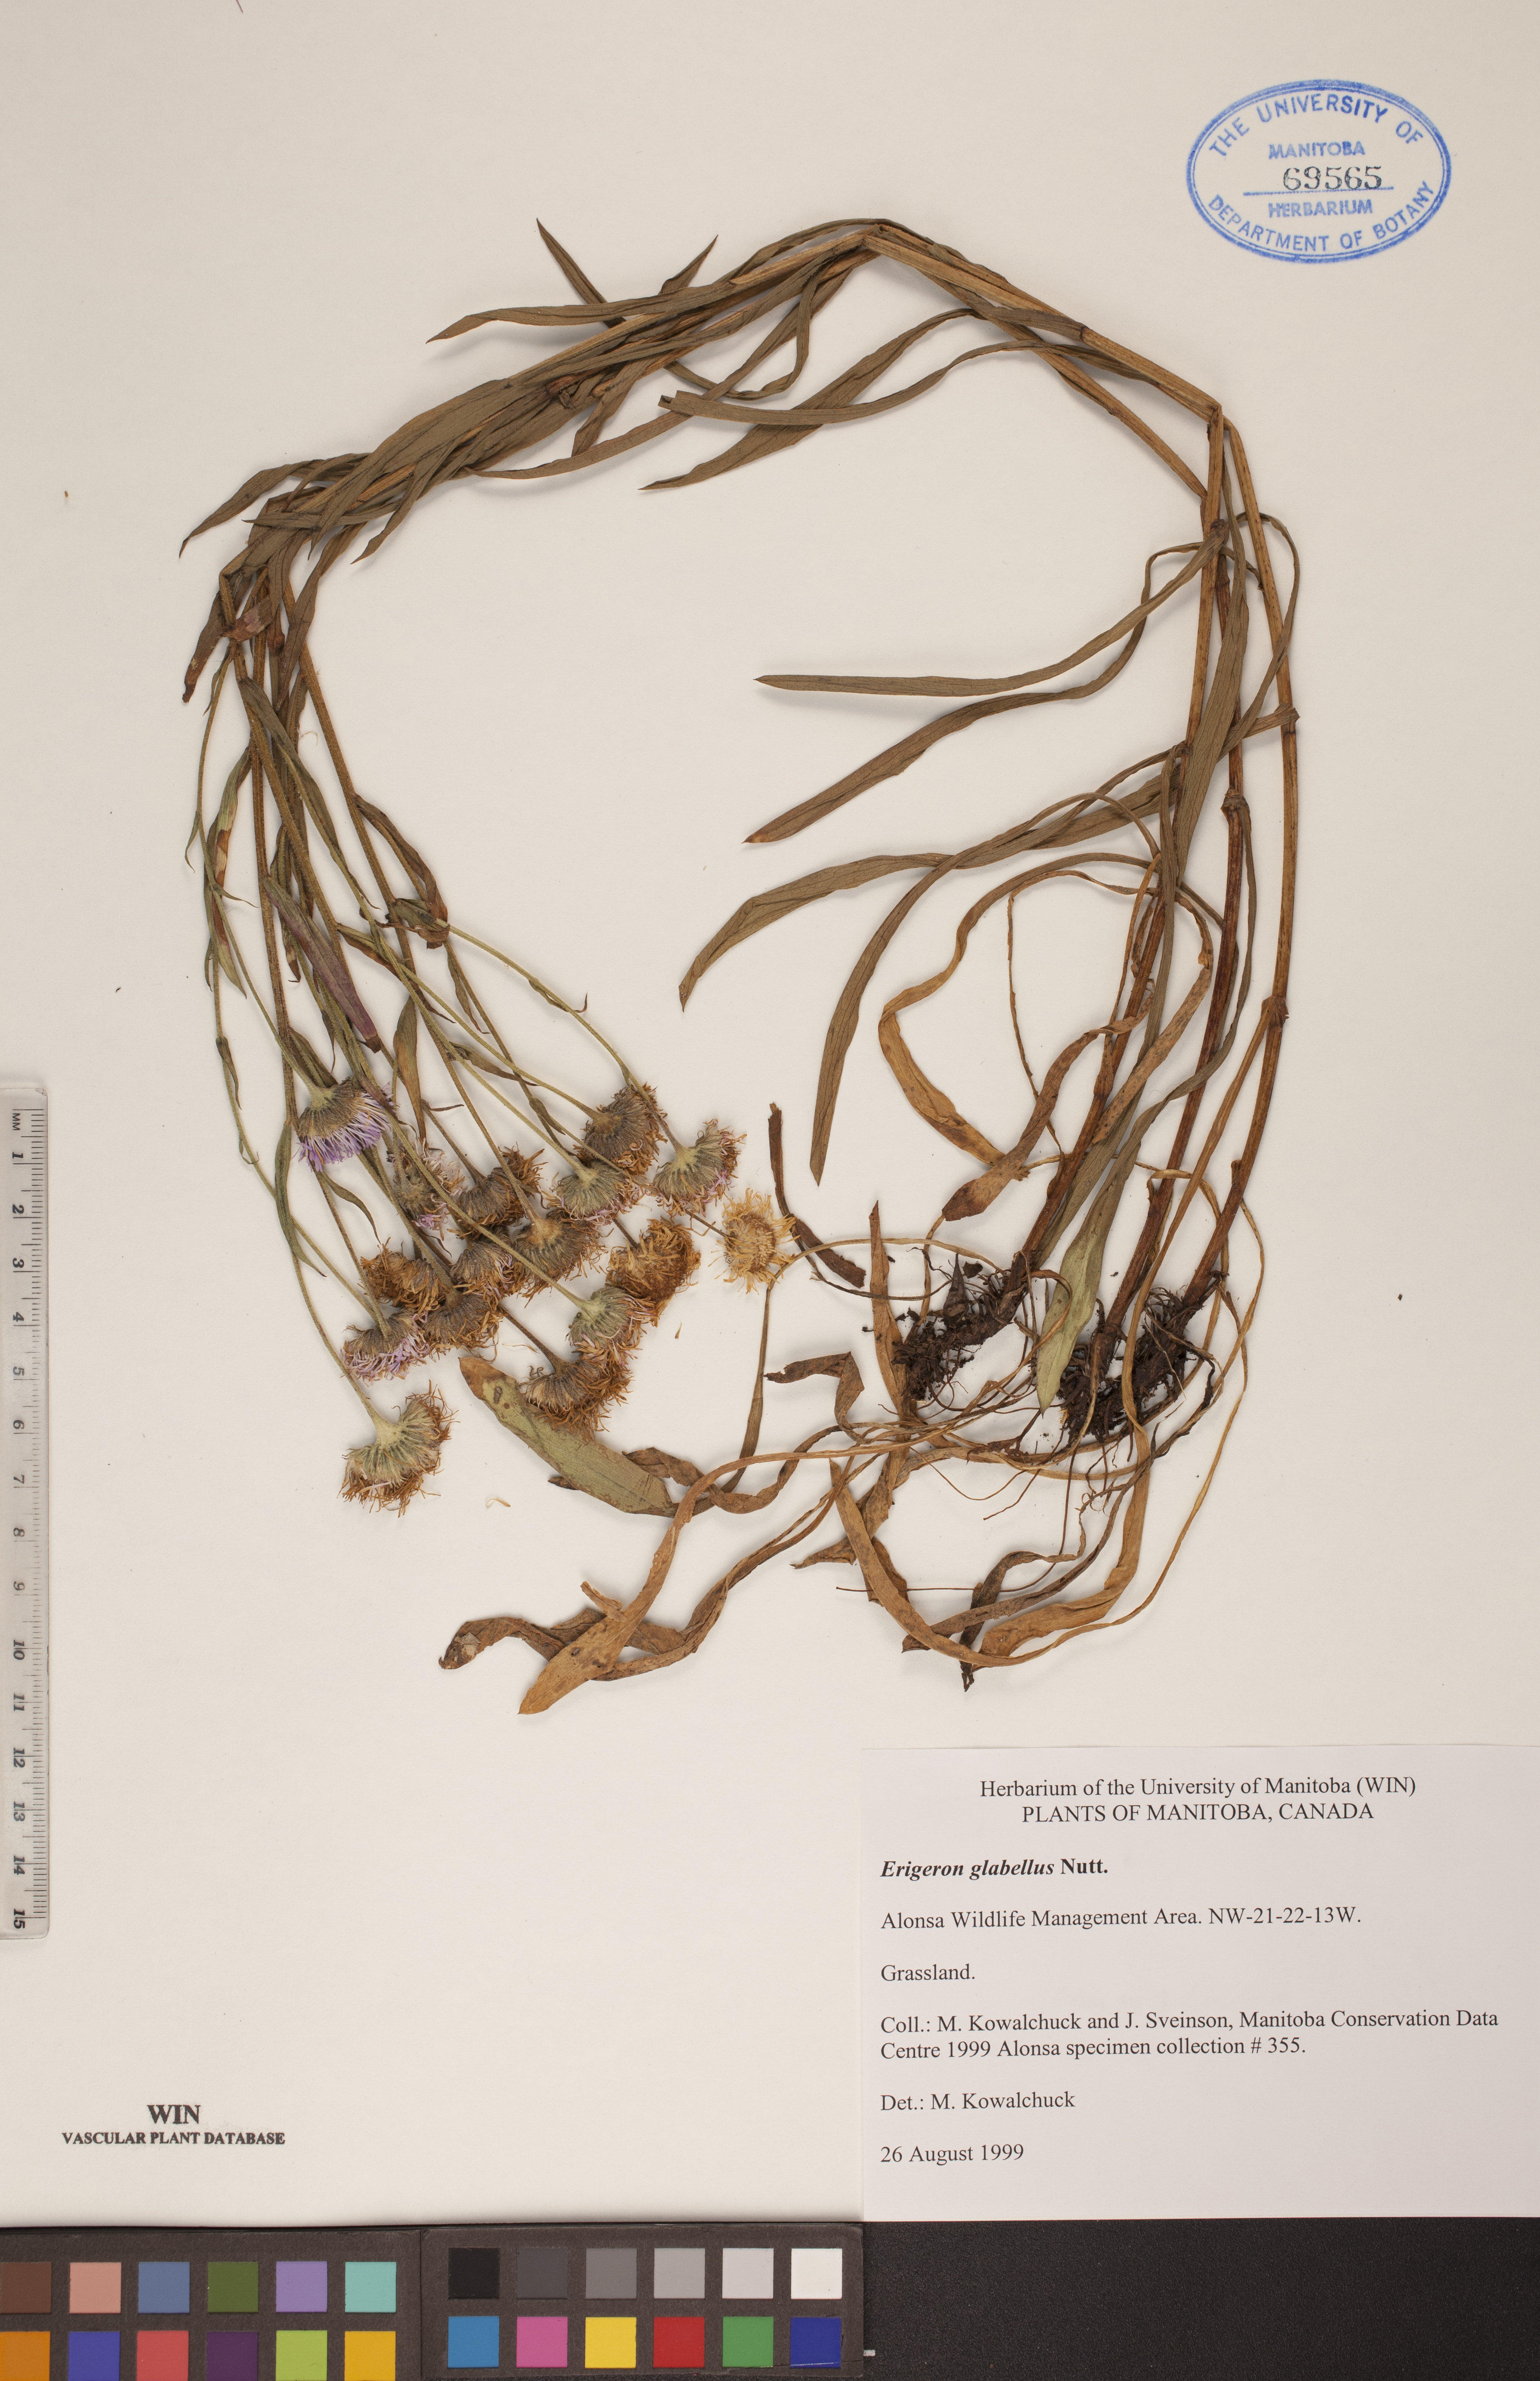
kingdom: Plantae
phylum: Tracheophyta
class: Magnoliopsida
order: Asterales
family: Asteraceae
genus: Erigeron
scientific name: Erigeron glabellus
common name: Smooth fleabane
